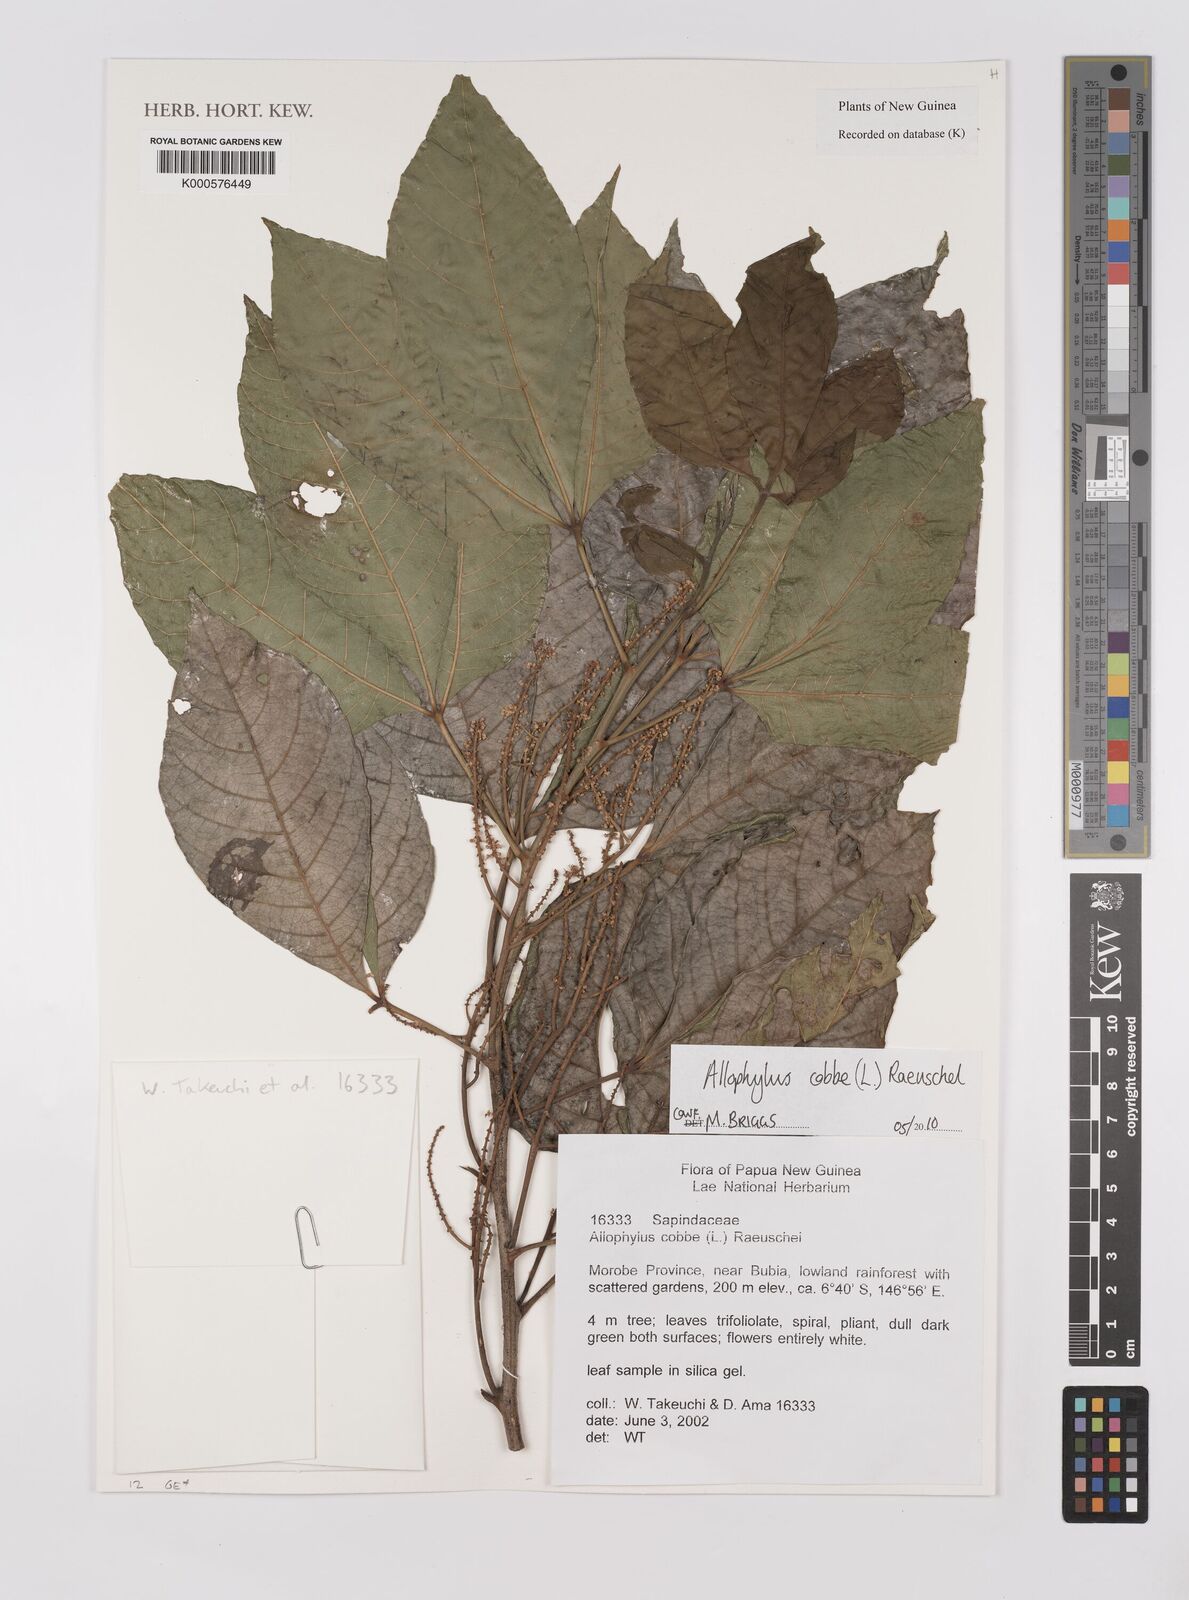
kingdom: Plantae
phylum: Tracheophyta
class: Magnoliopsida
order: Sapindales
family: Sapindaceae
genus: Allophylus
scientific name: Allophylus
